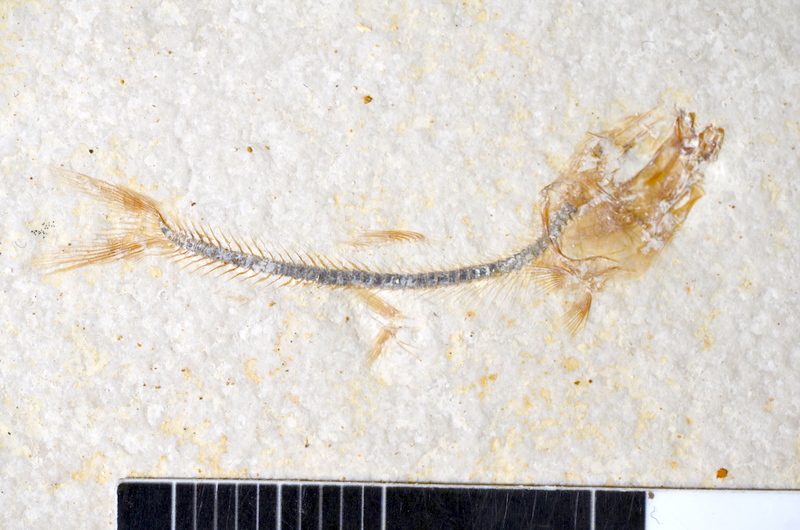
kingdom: Animalia
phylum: Chordata
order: Salmoniformes
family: Orthogonikleithridae
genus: Orthogonikleithrus
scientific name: Orthogonikleithrus hoelli
